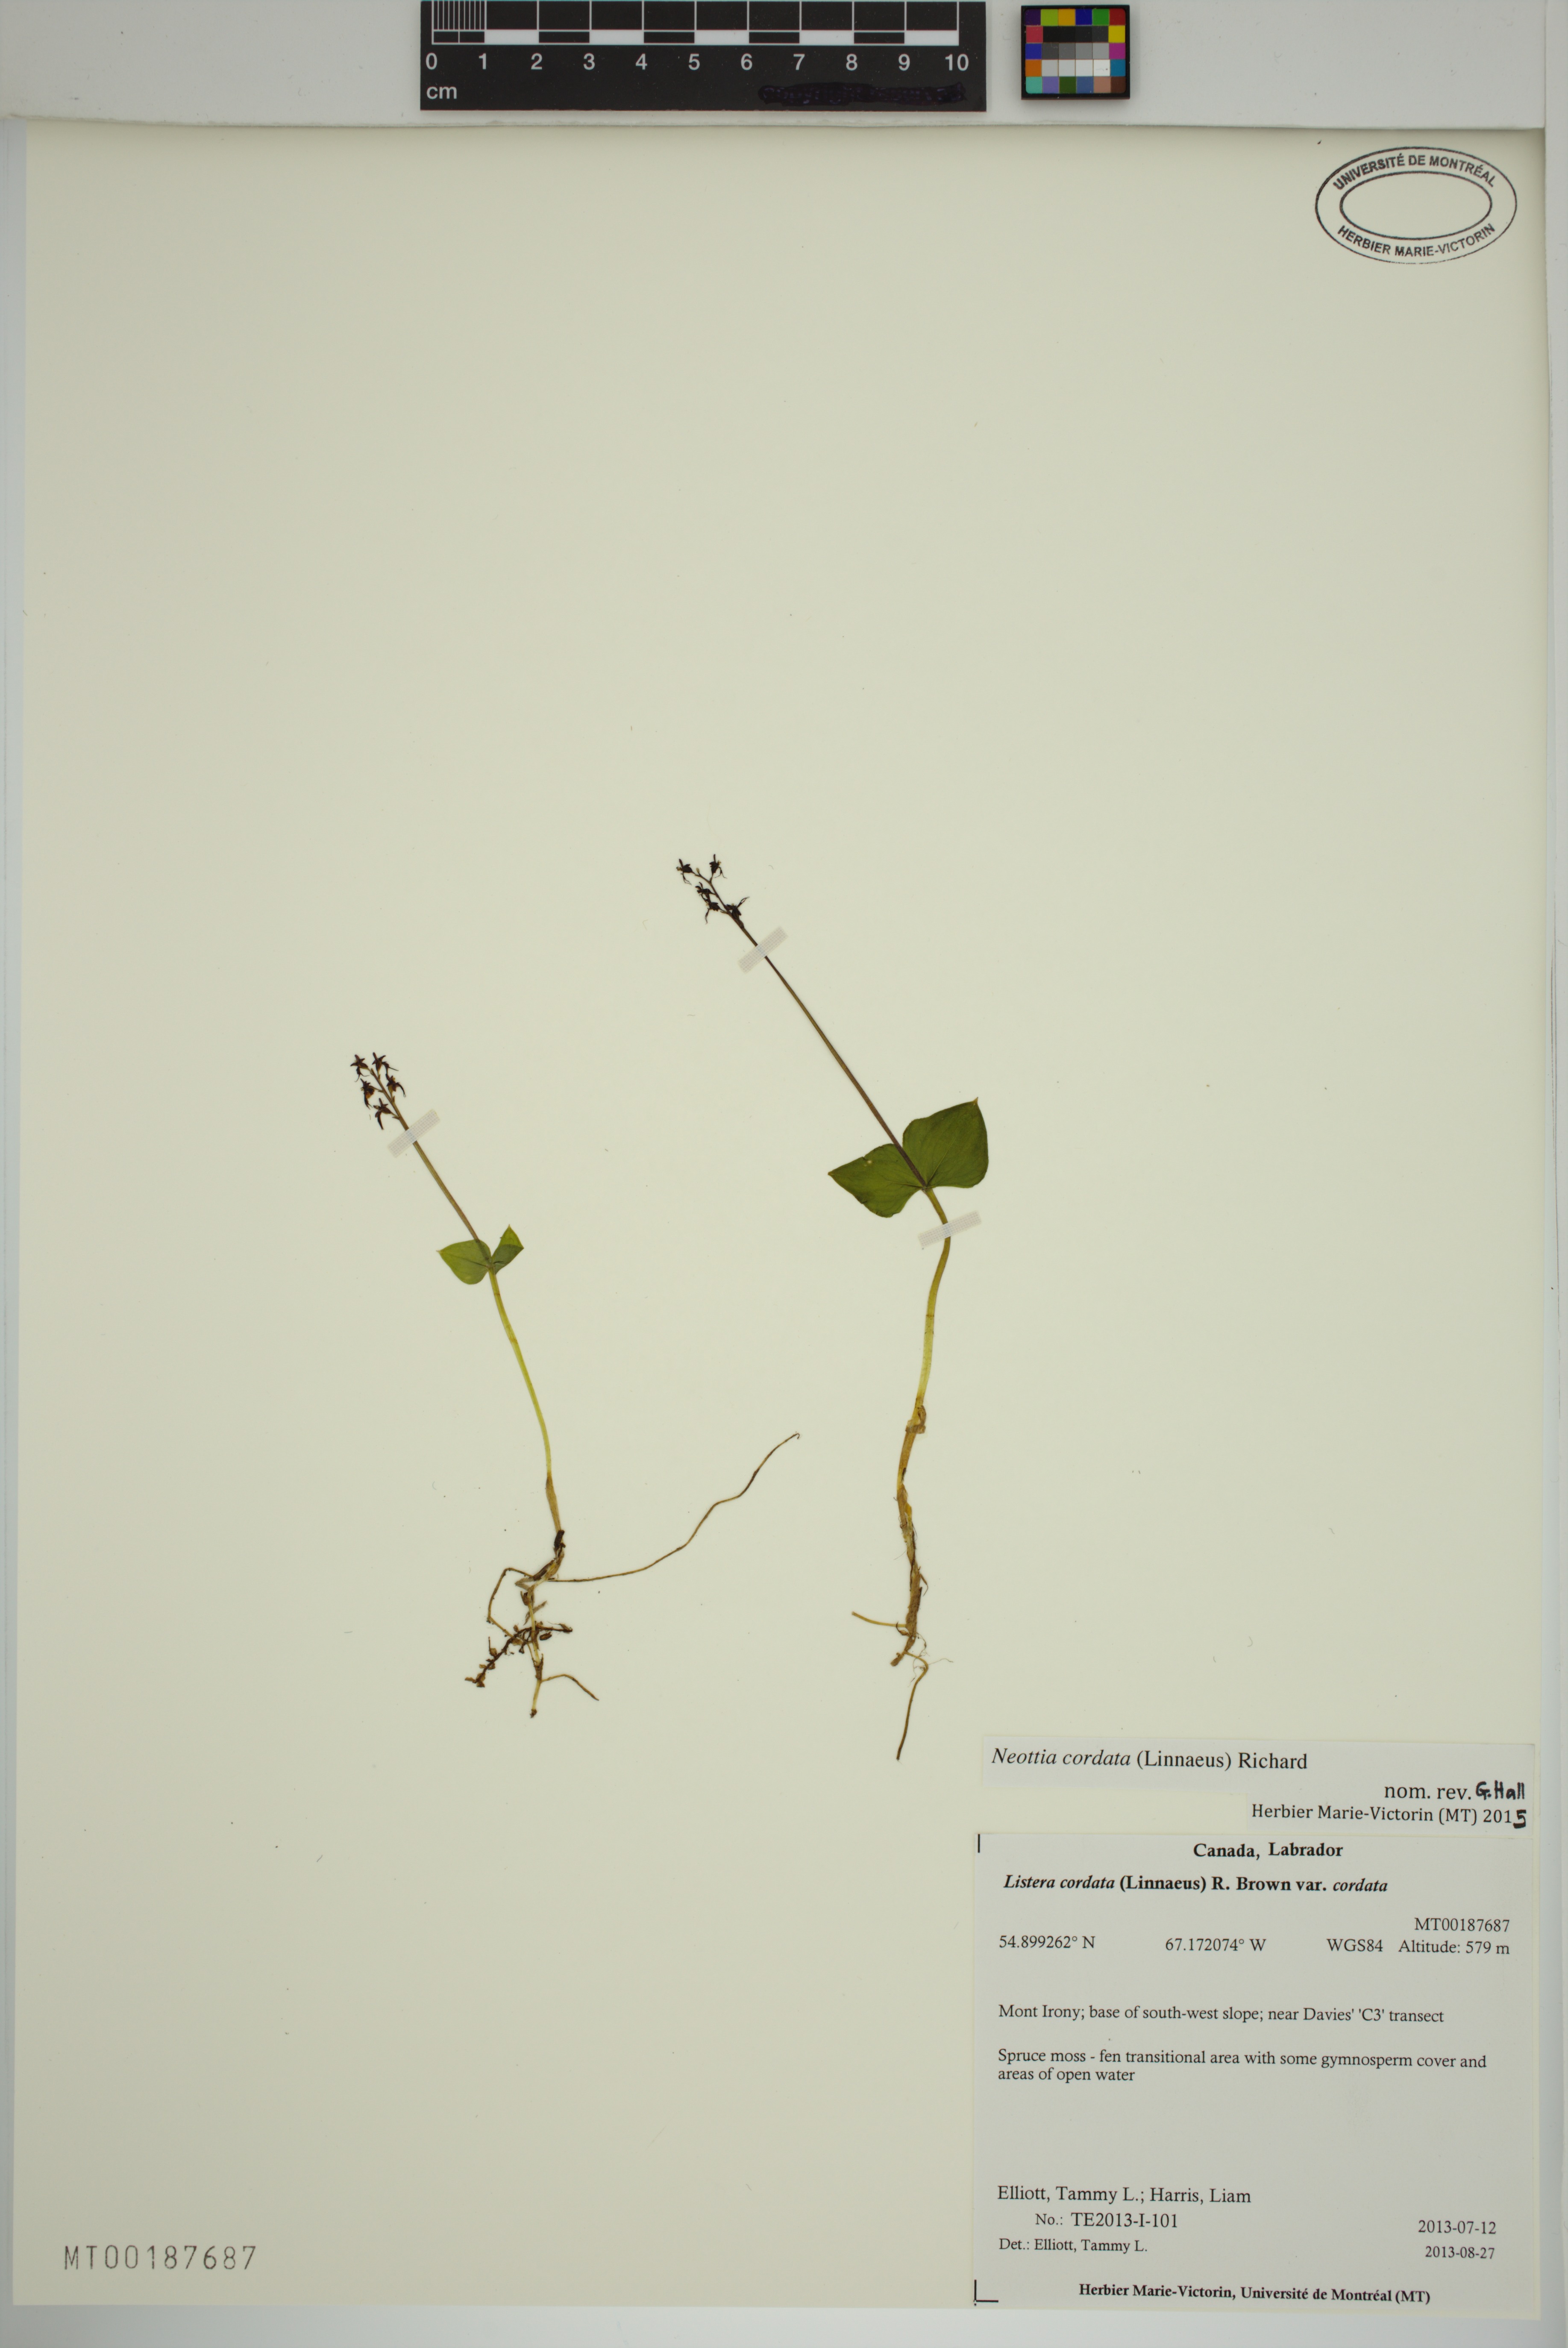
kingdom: Plantae
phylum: Tracheophyta
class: Liliopsida
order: Asparagales
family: Orchidaceae
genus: Neottia
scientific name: Neottia cordata
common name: Lesser twayblade
